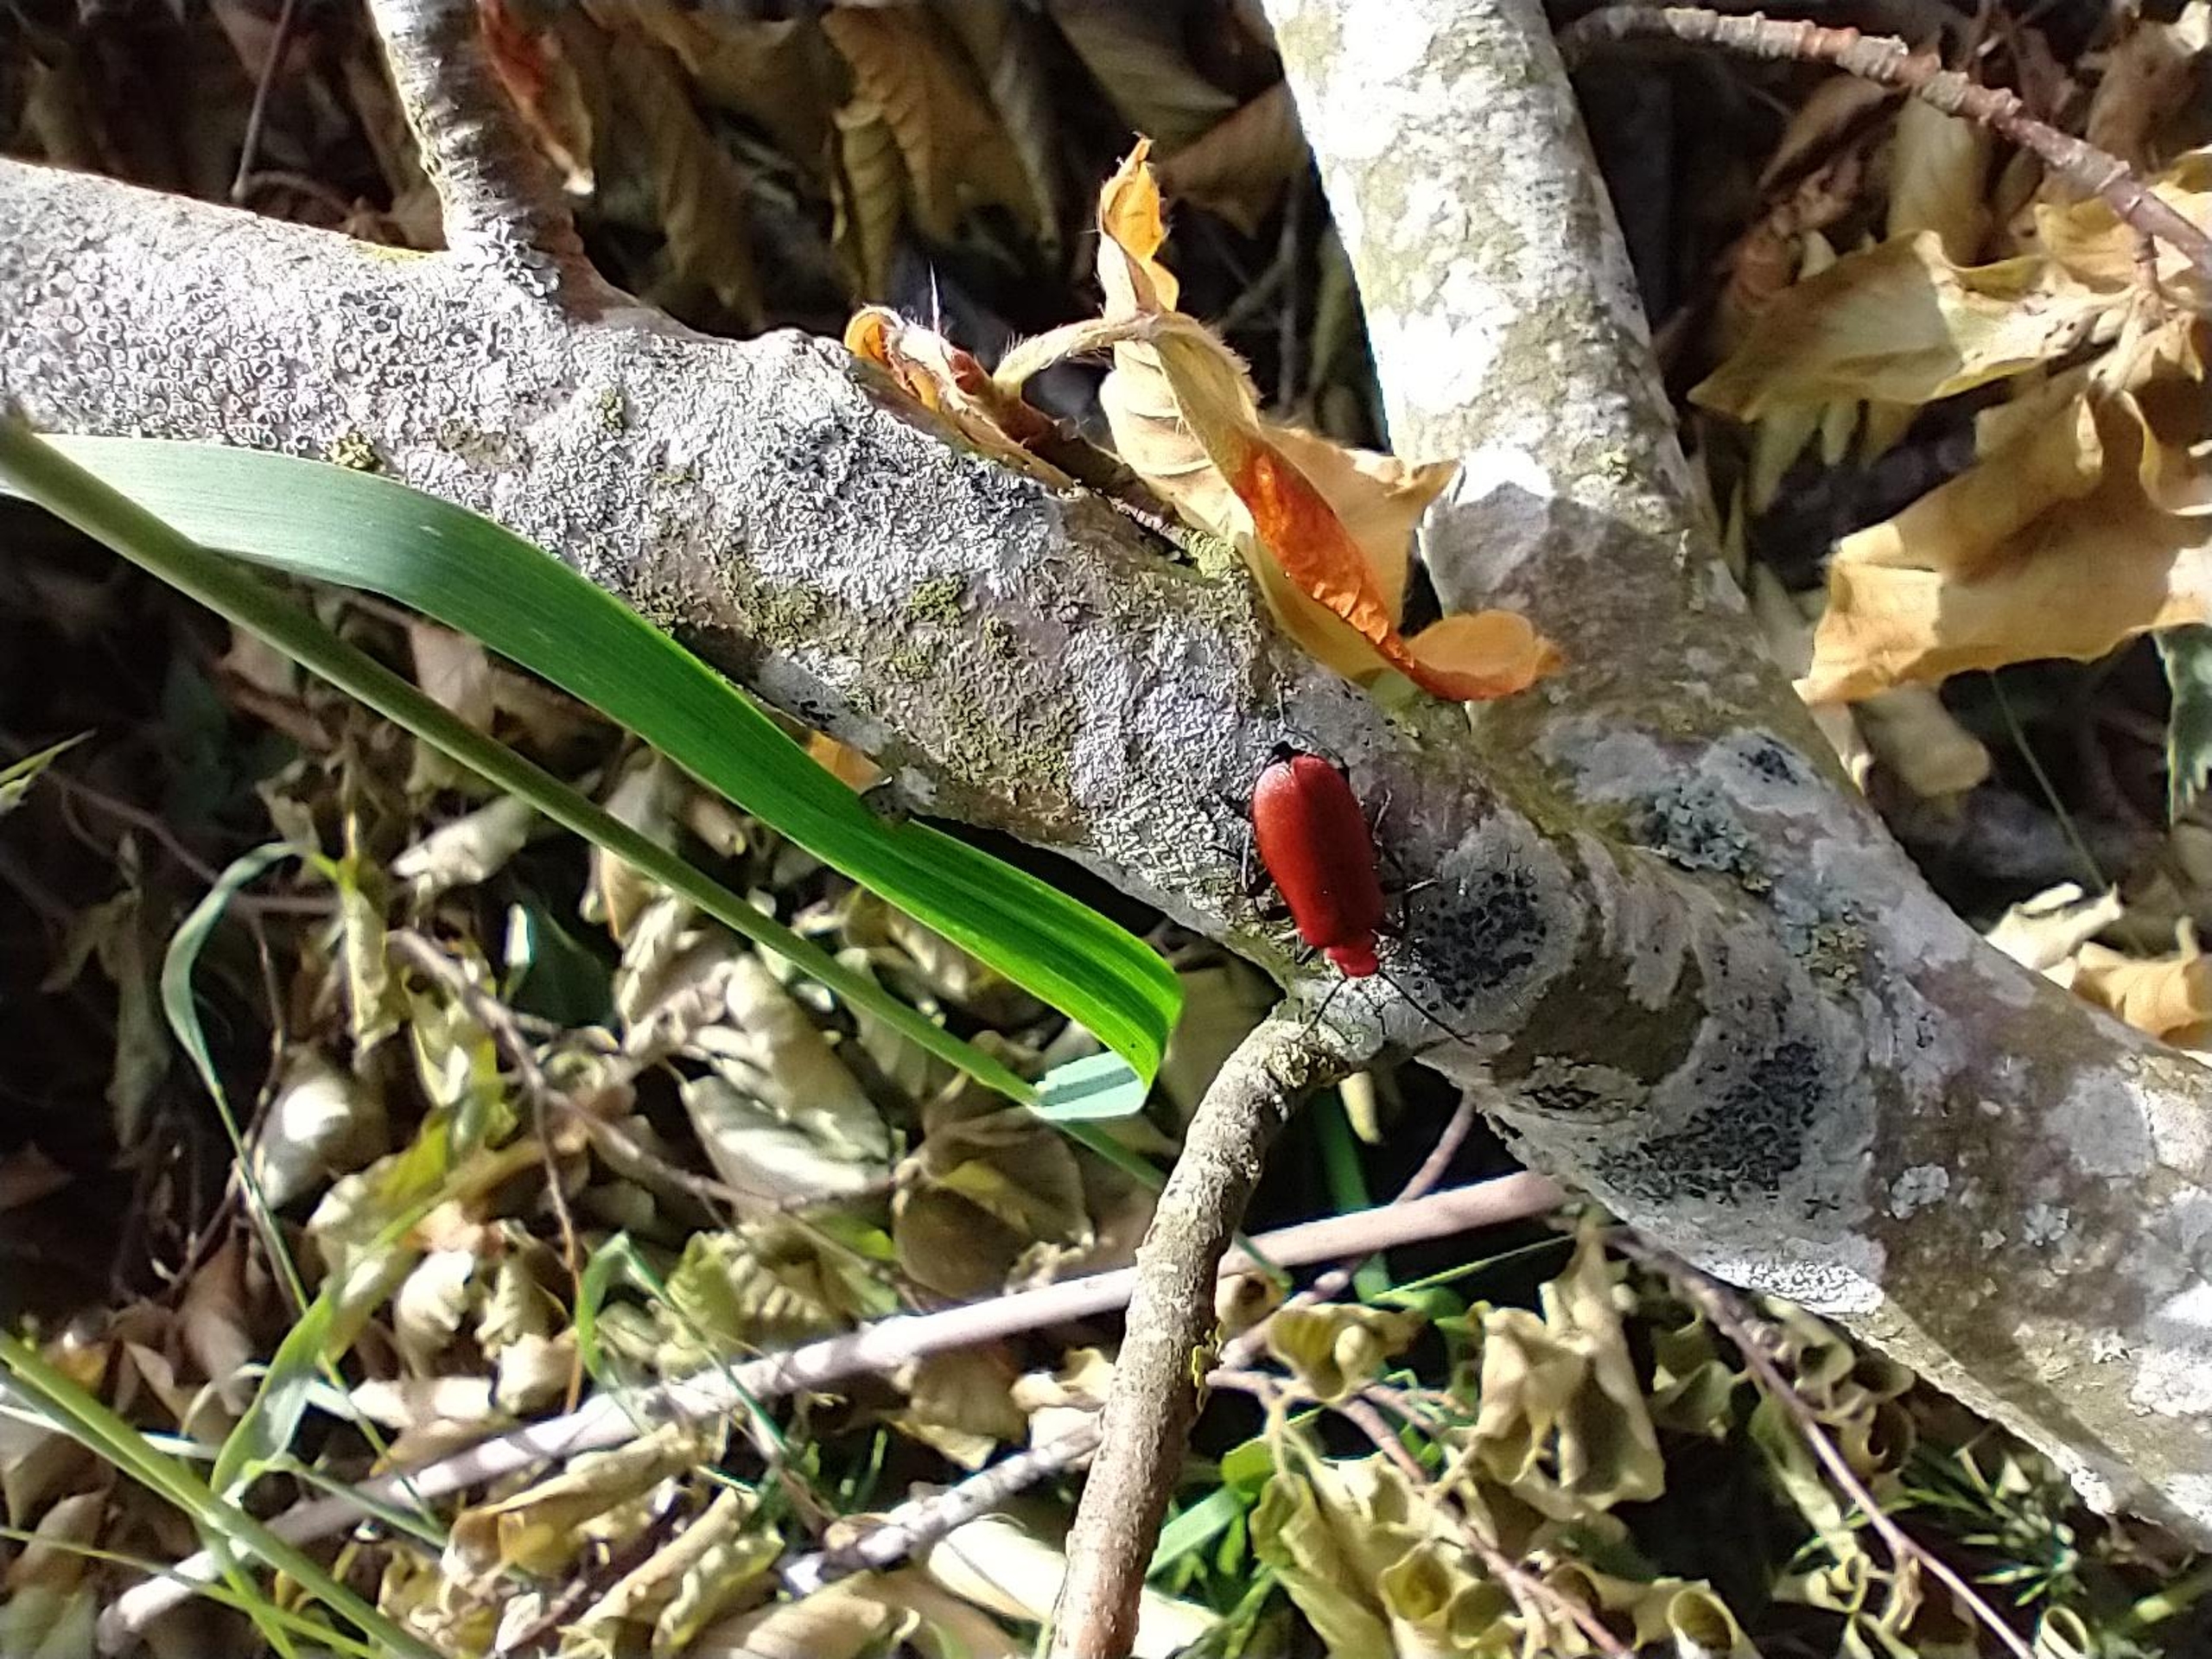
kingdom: Animalia
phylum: Arthropoda
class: Insecta
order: Coleoptera
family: Pyrochroidae
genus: Pyrochroa
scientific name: Pyrochroa serraticornis
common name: Rødhovedet kardinalbille
